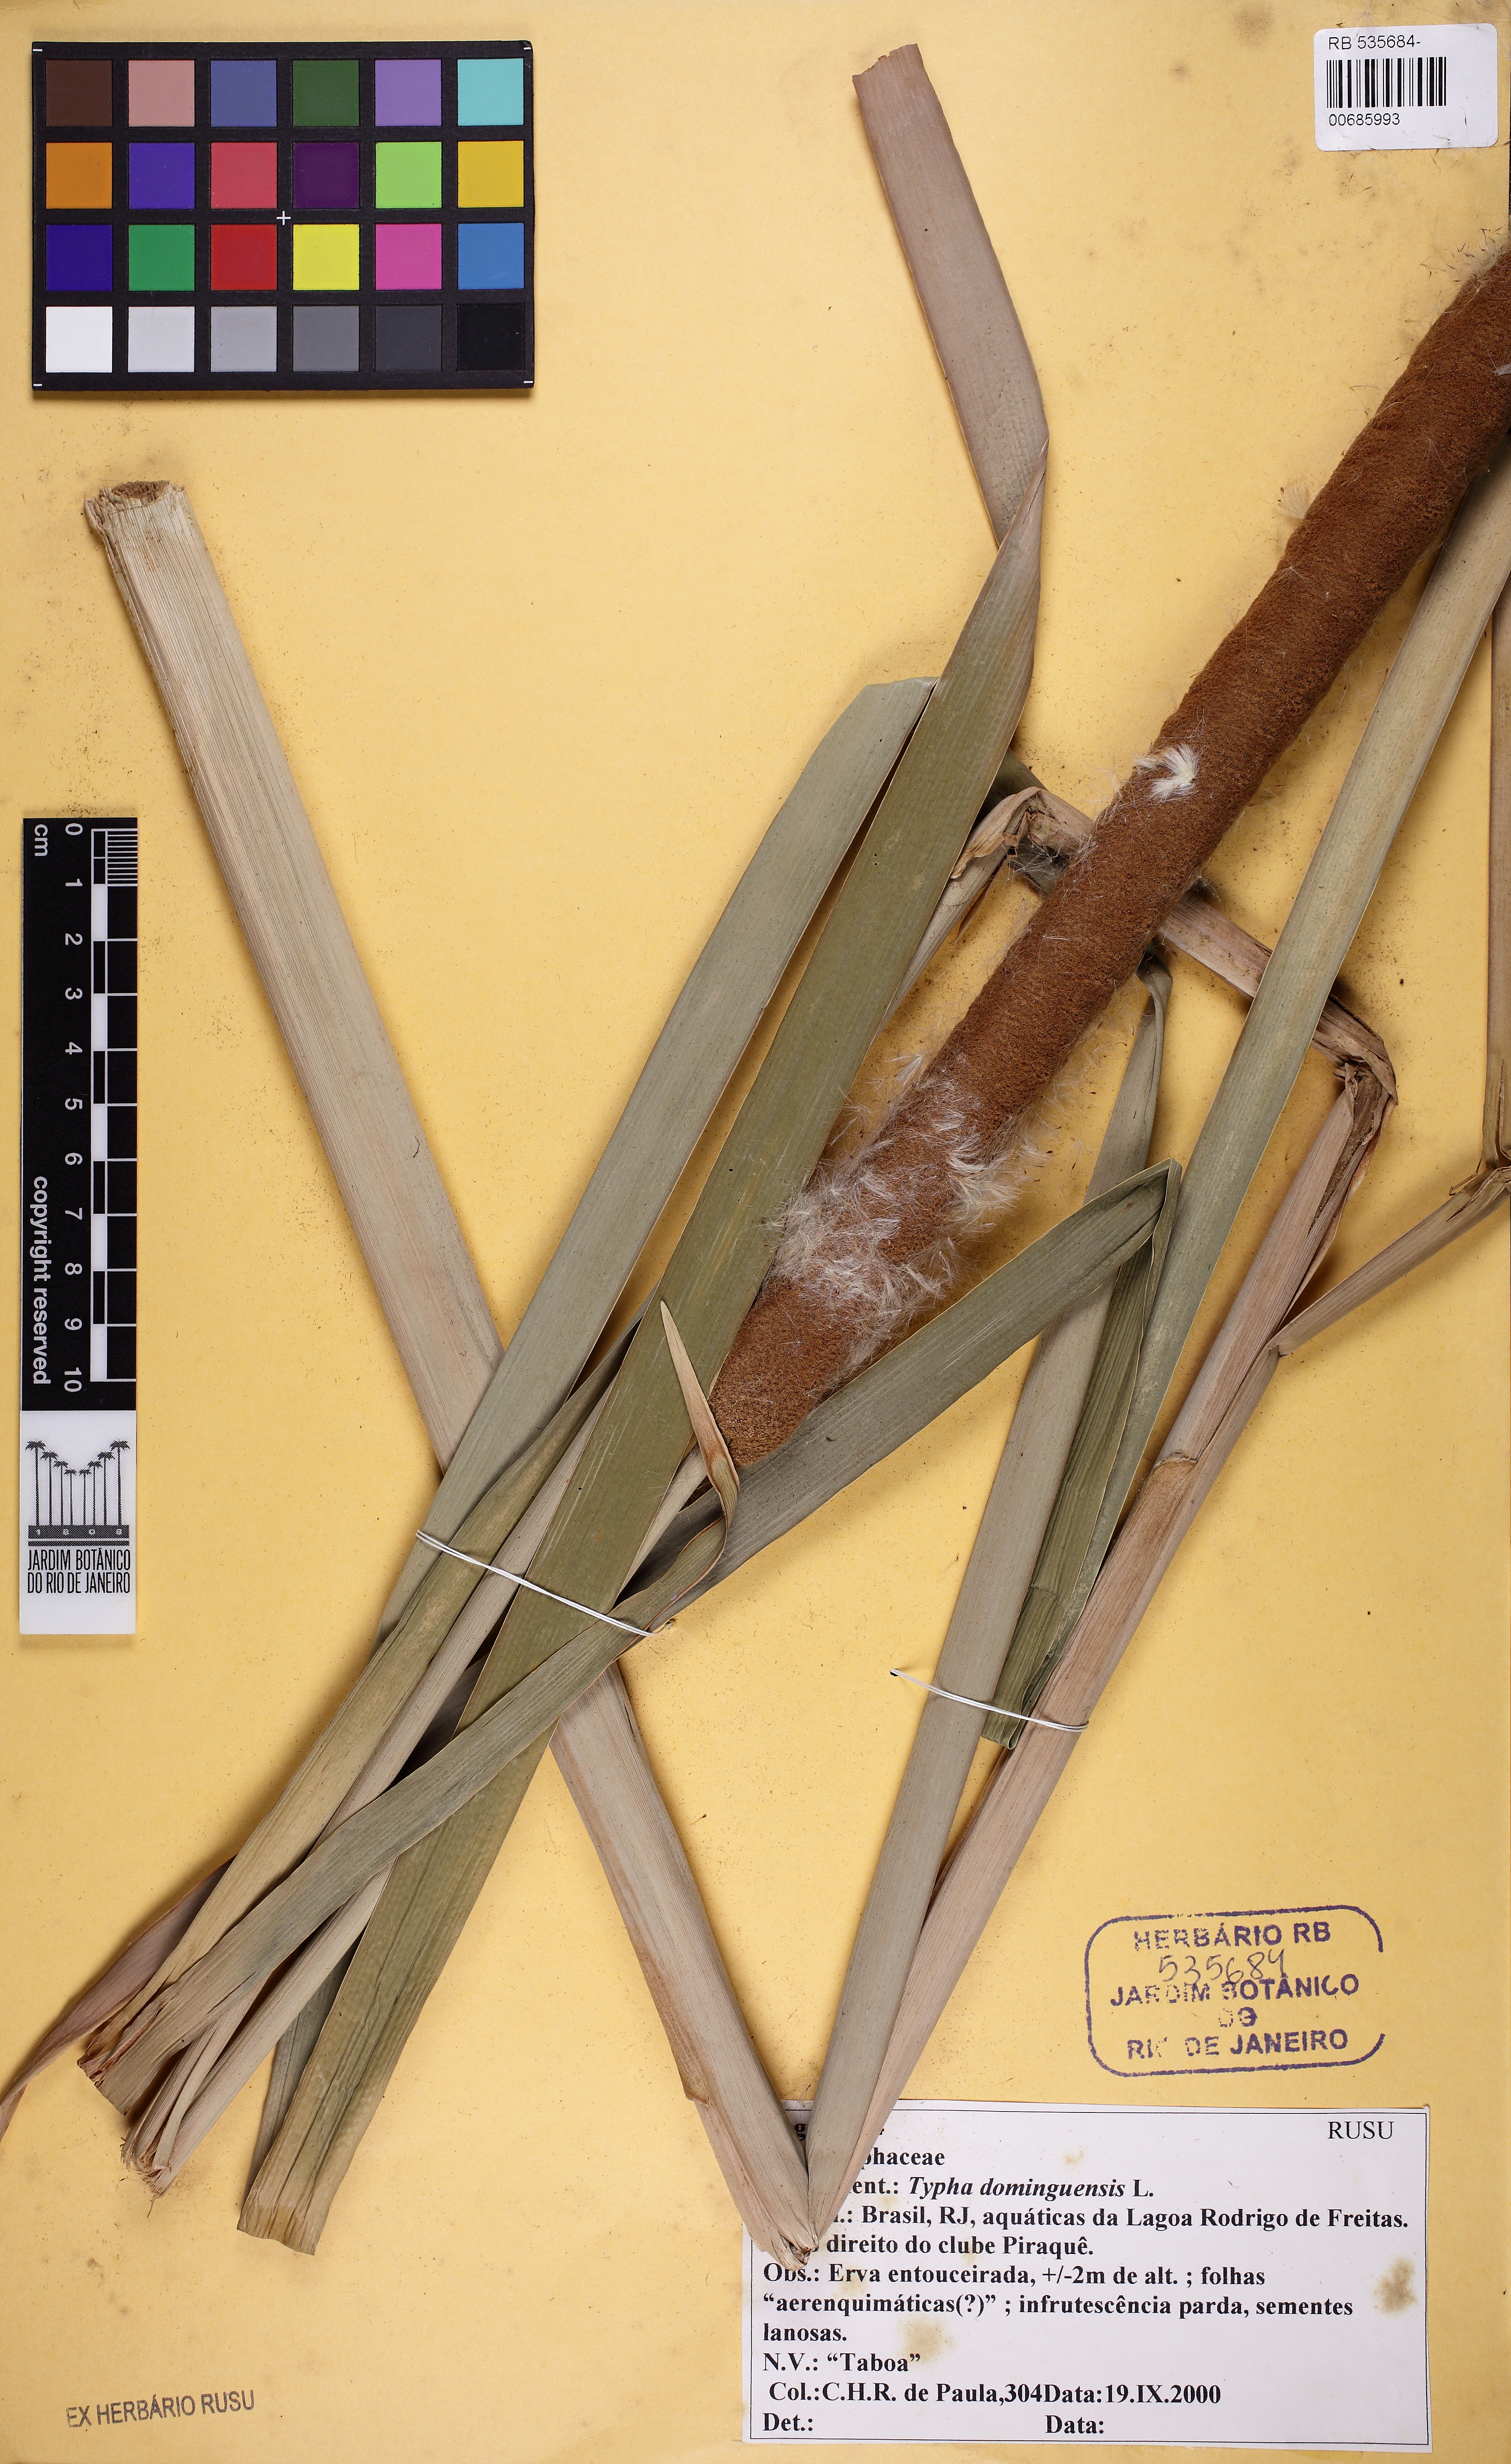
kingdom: Plantae
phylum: Tracheophyta
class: Liliopsida
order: Poales
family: Typhaceae
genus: Typha
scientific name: Typha domingensis
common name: Southern cattail
